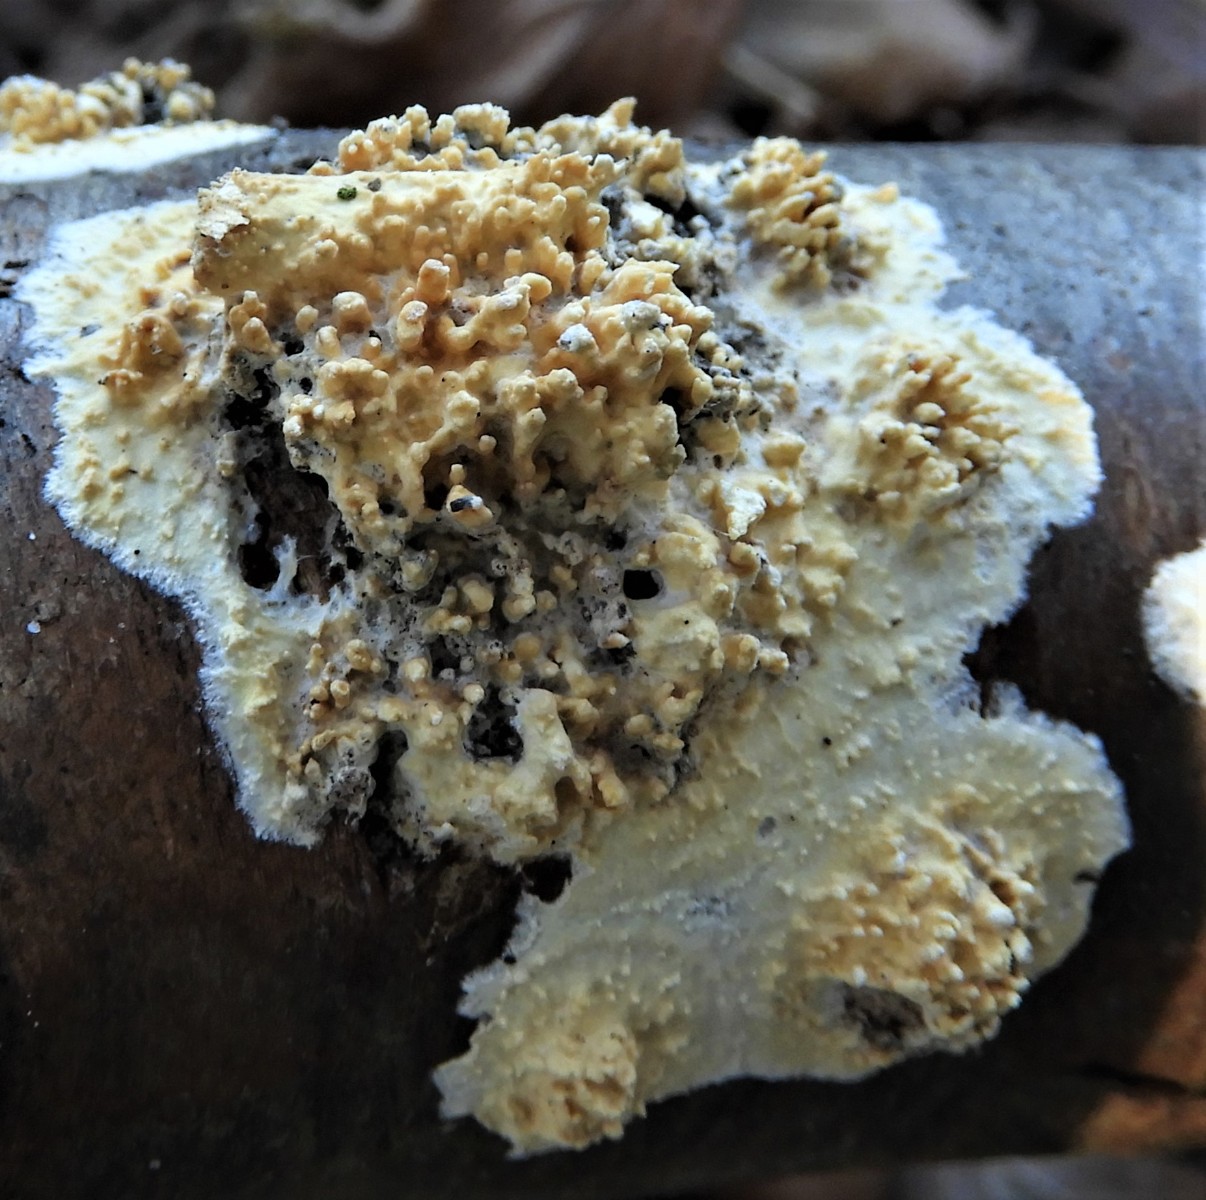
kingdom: Fungi
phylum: Basidiomycota
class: Agaricomycetes
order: Hymenochaetales
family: Schizoporaceae
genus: Xylodon
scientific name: Xylodon radula
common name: grovtandet kalkskind
